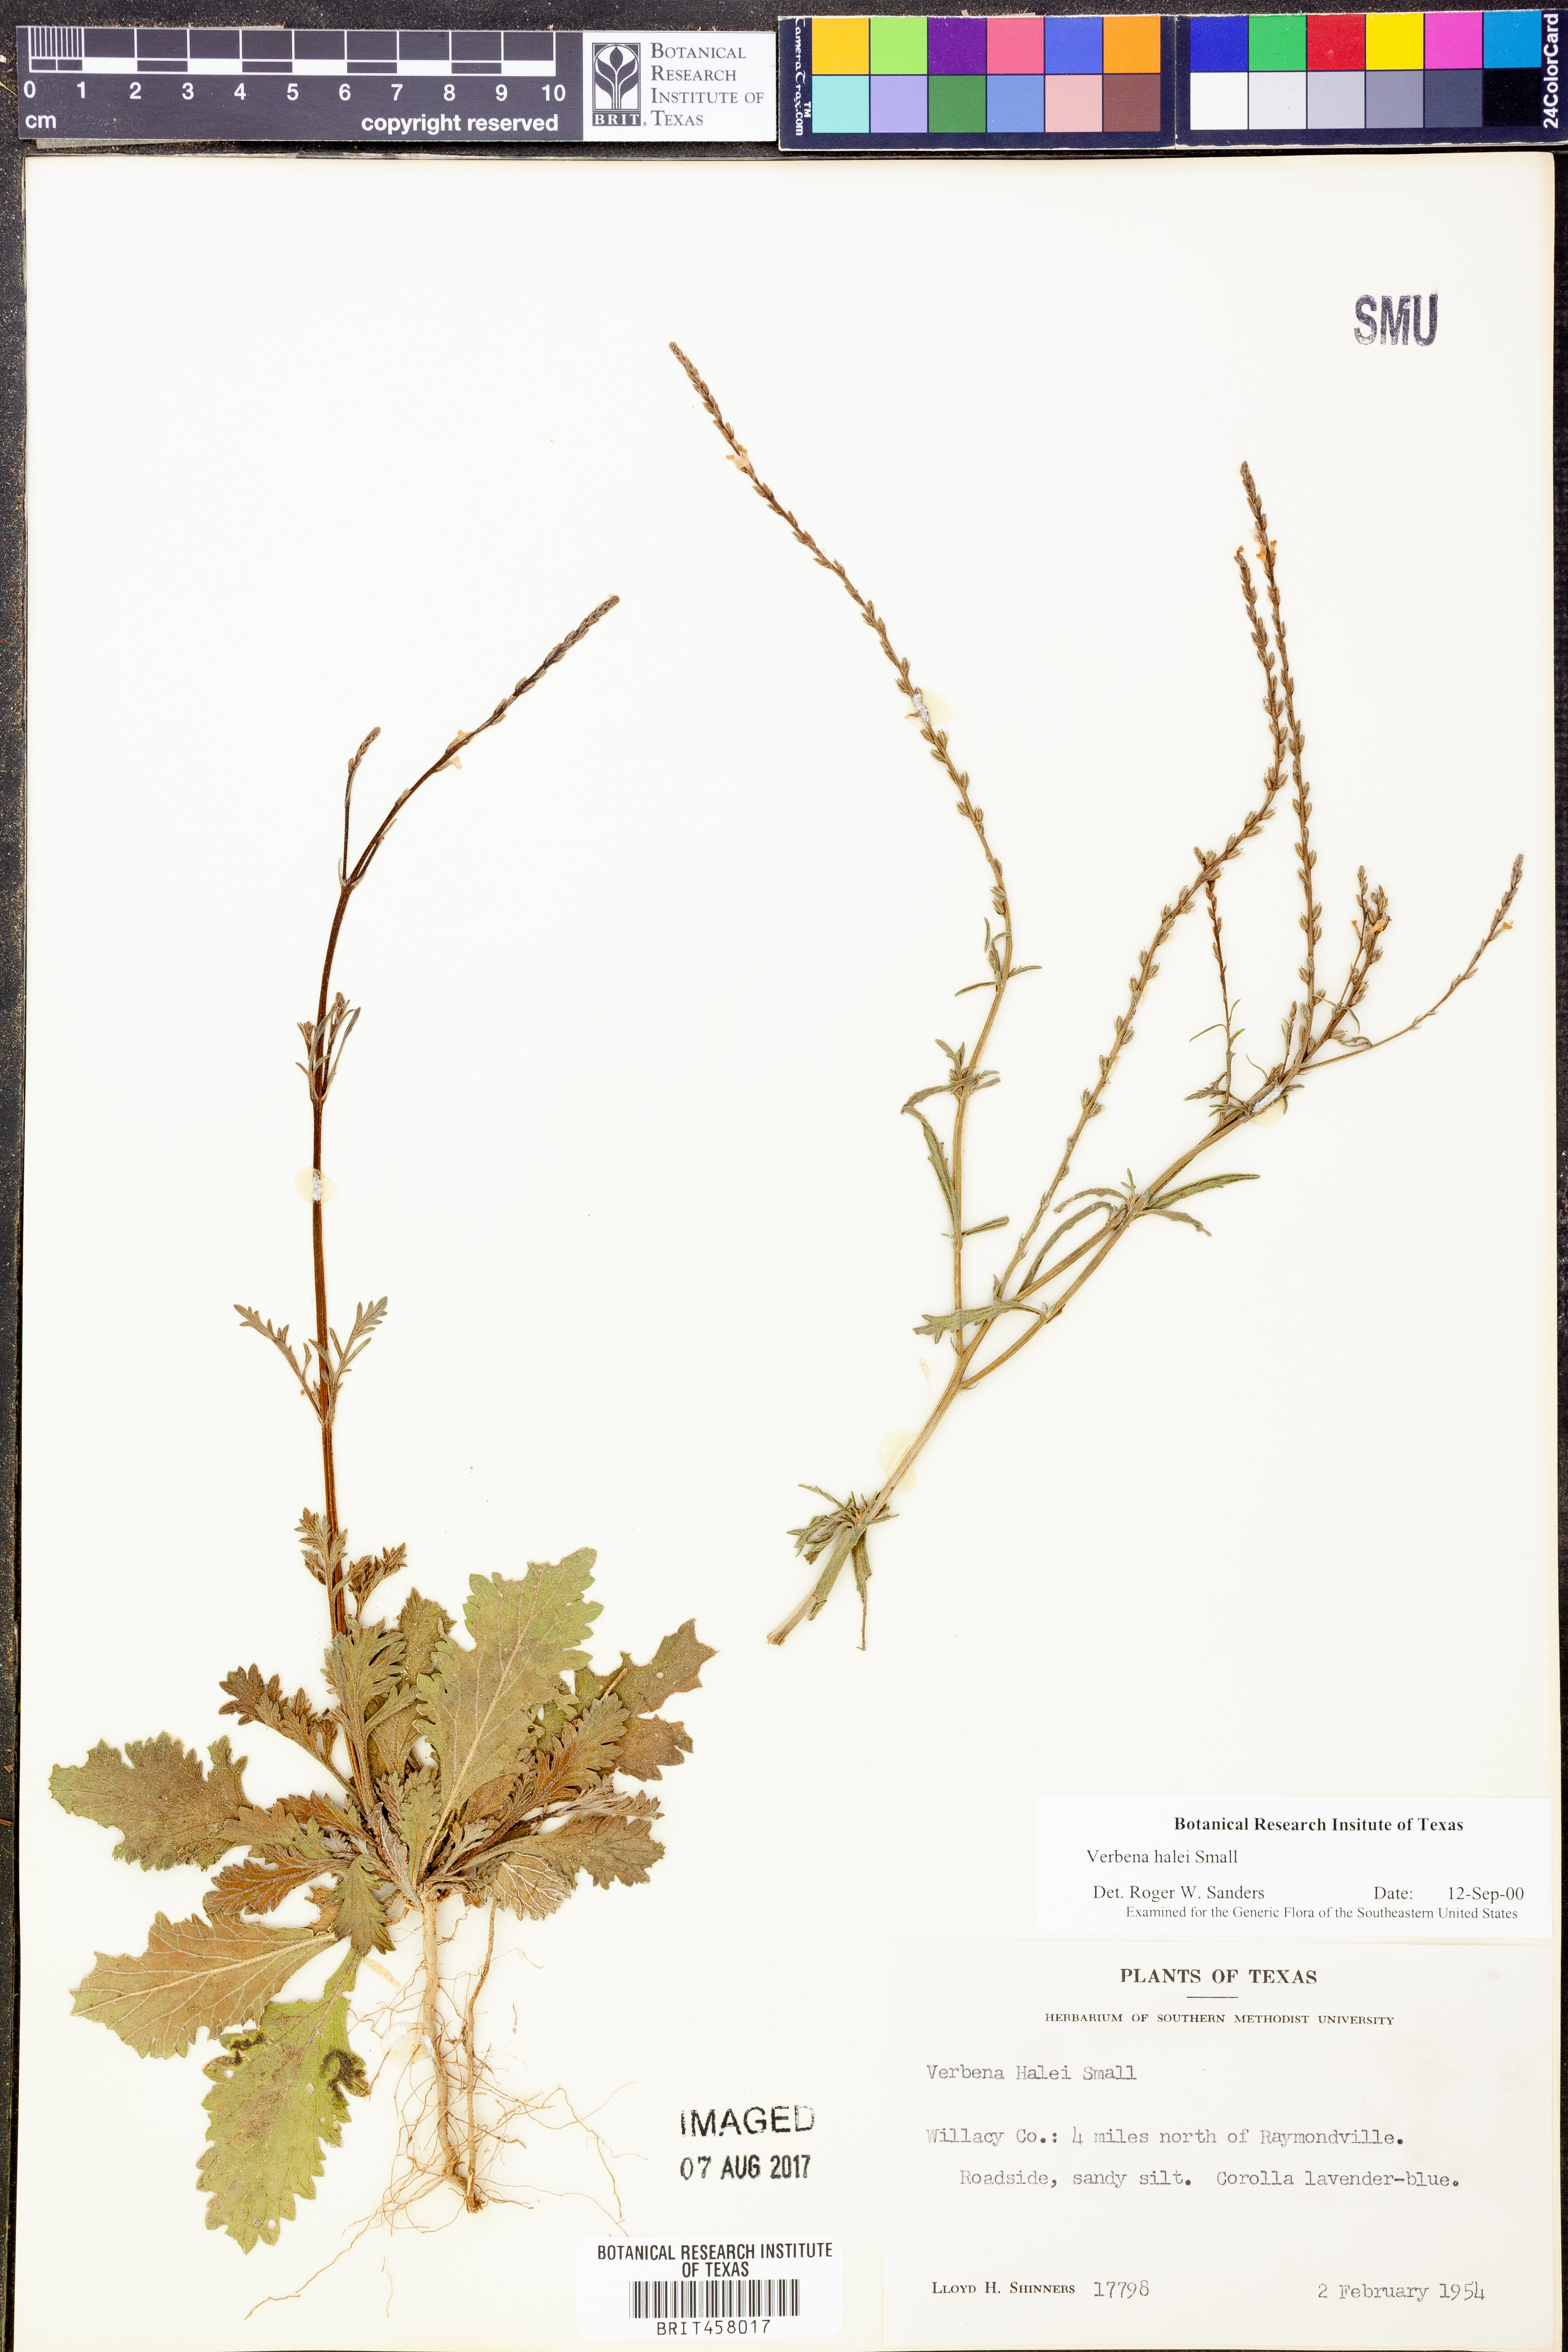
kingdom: Plantae
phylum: Tracheophyta
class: Magnoliopsida
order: Lamiales
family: Verbenaceae
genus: Verbena
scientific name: Verbena halei
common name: Texas vervain
